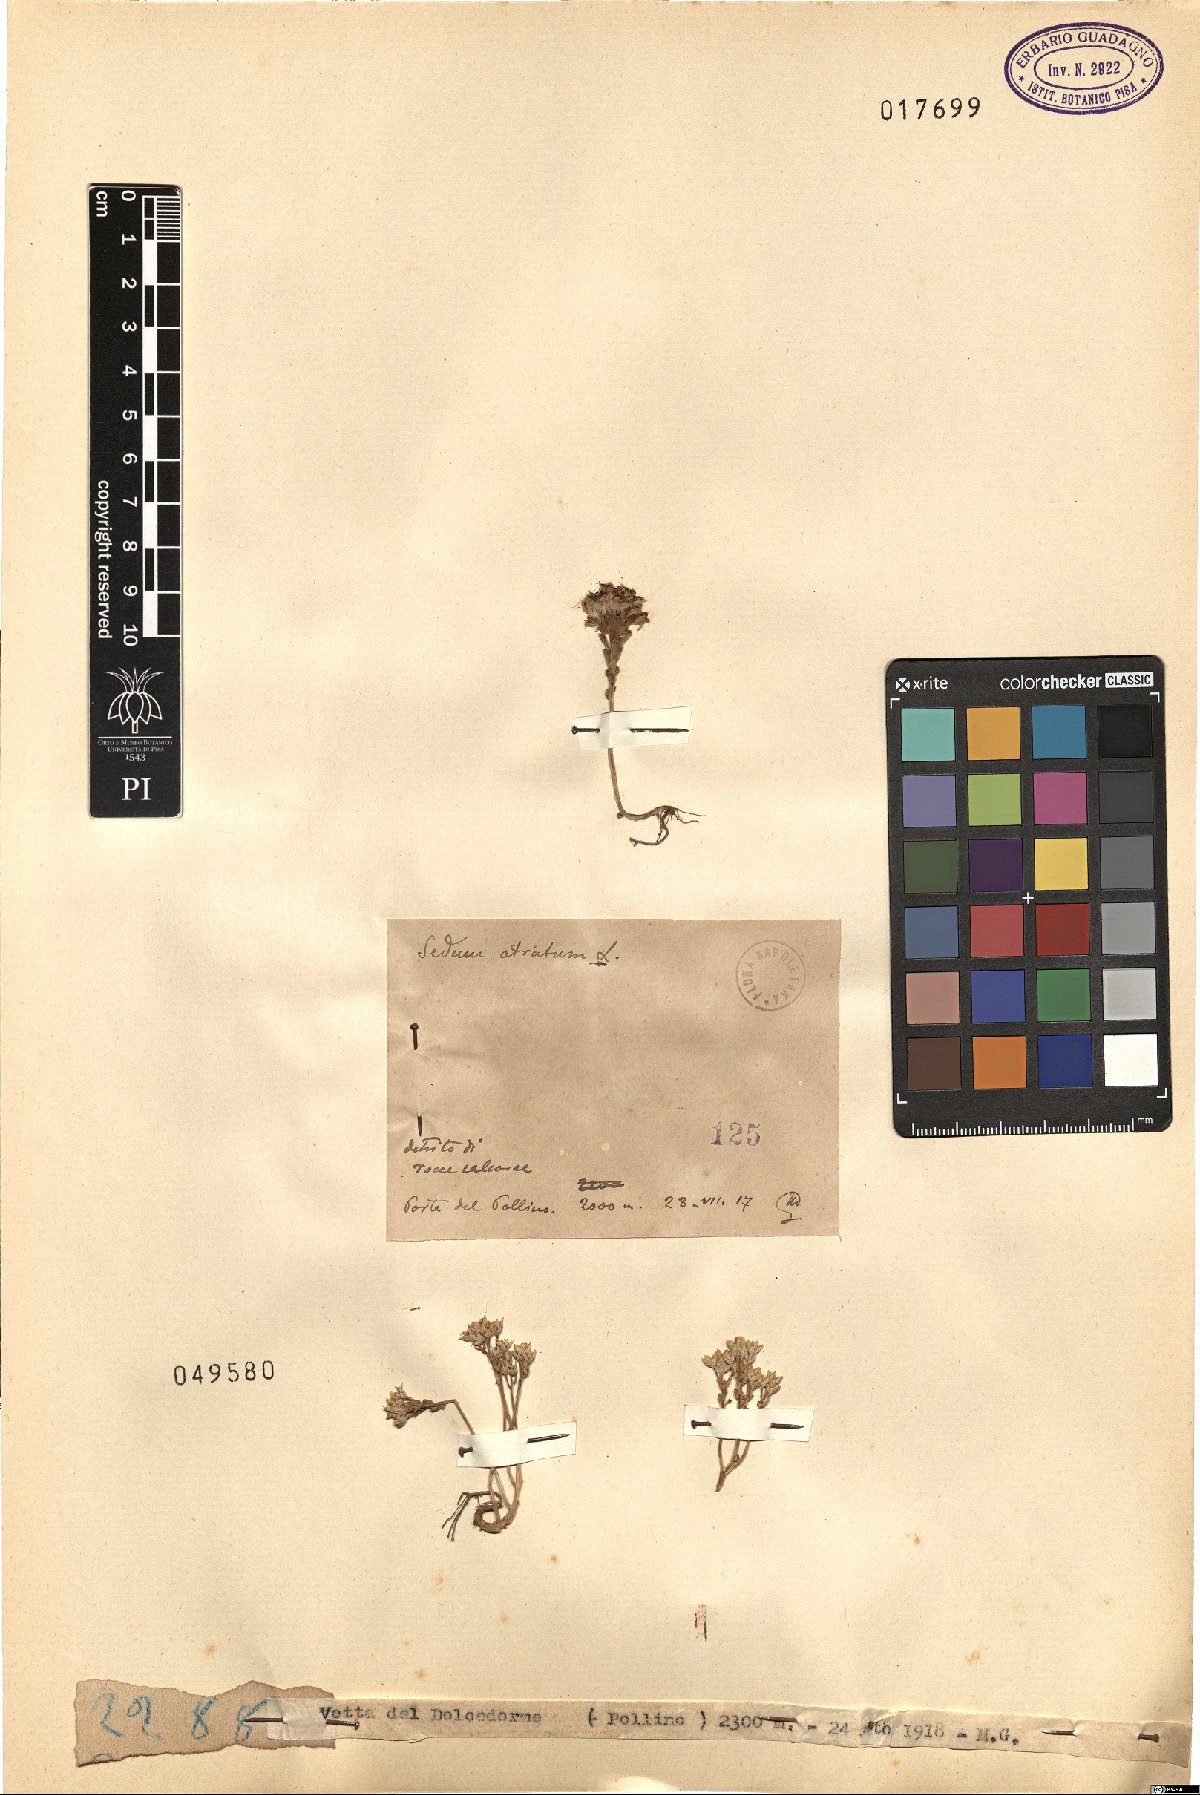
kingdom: Plantae
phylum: Tracheophyta
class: Magnoliopsida
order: Saxifragales
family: Crassulaceae
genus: Sedum
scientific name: Sedum atratum
